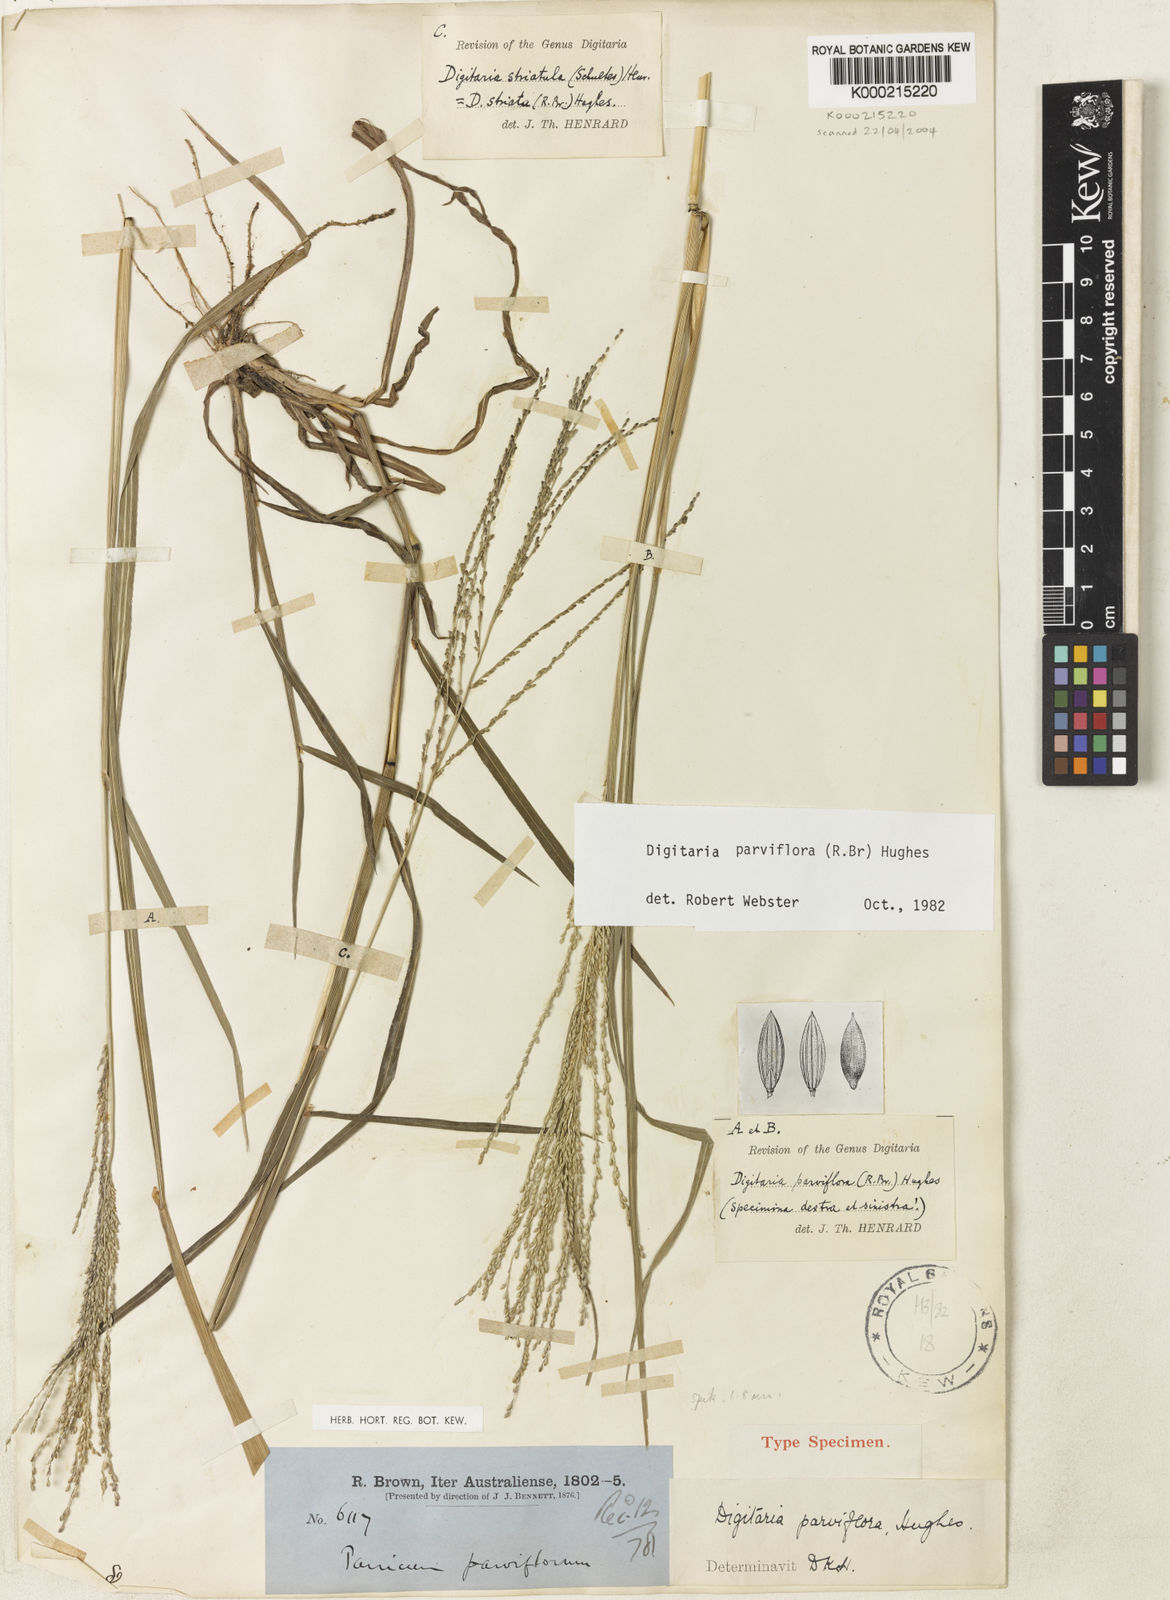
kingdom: Plantae
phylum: Tracheophyta
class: Liliopsida
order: Poales
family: Poaceae
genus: Digitaria
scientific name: Digitaria parviflora
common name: Small-flower finger grass
